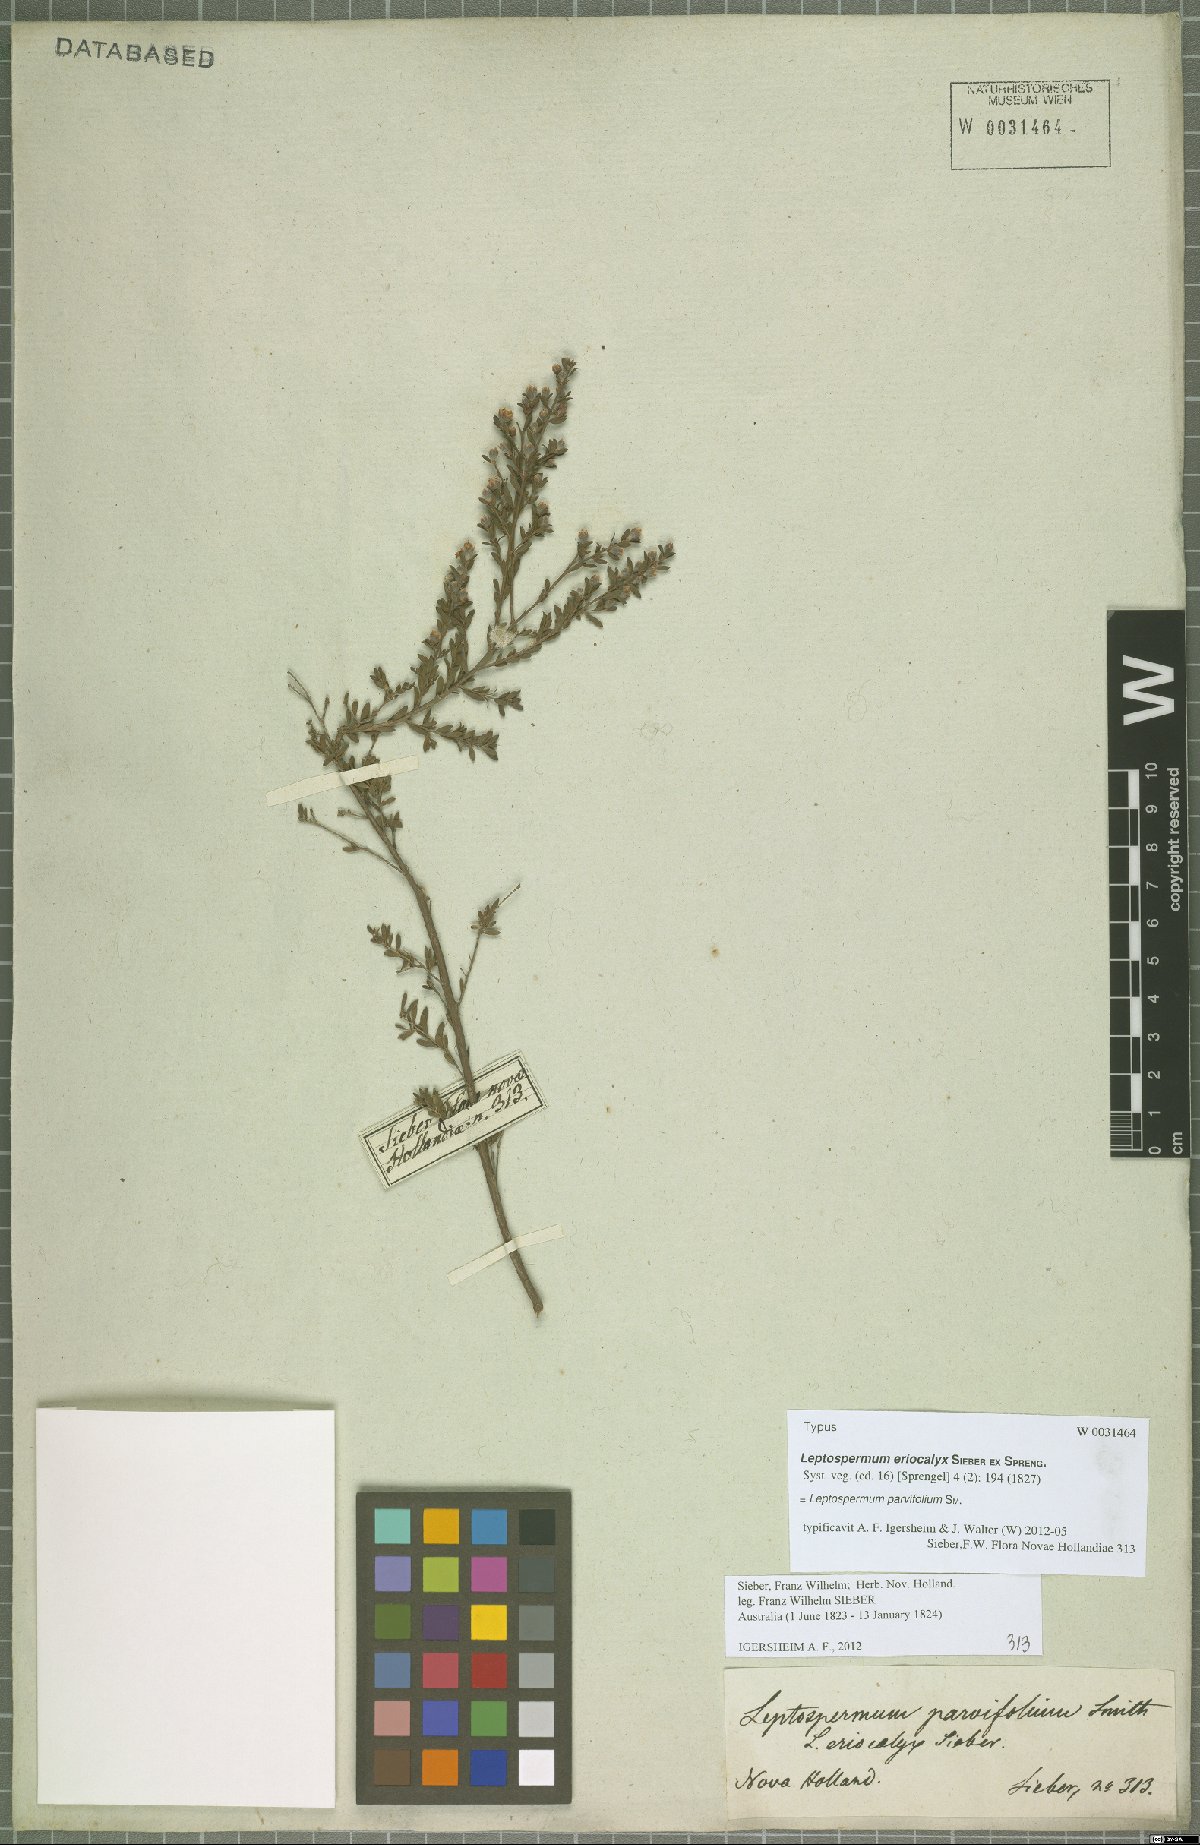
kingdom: Plantae
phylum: Tracheophyta
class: Magnoliopsida
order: Myrtales
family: Myrtaceae
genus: Leptospermum
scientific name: Leptospermum parvifolium
